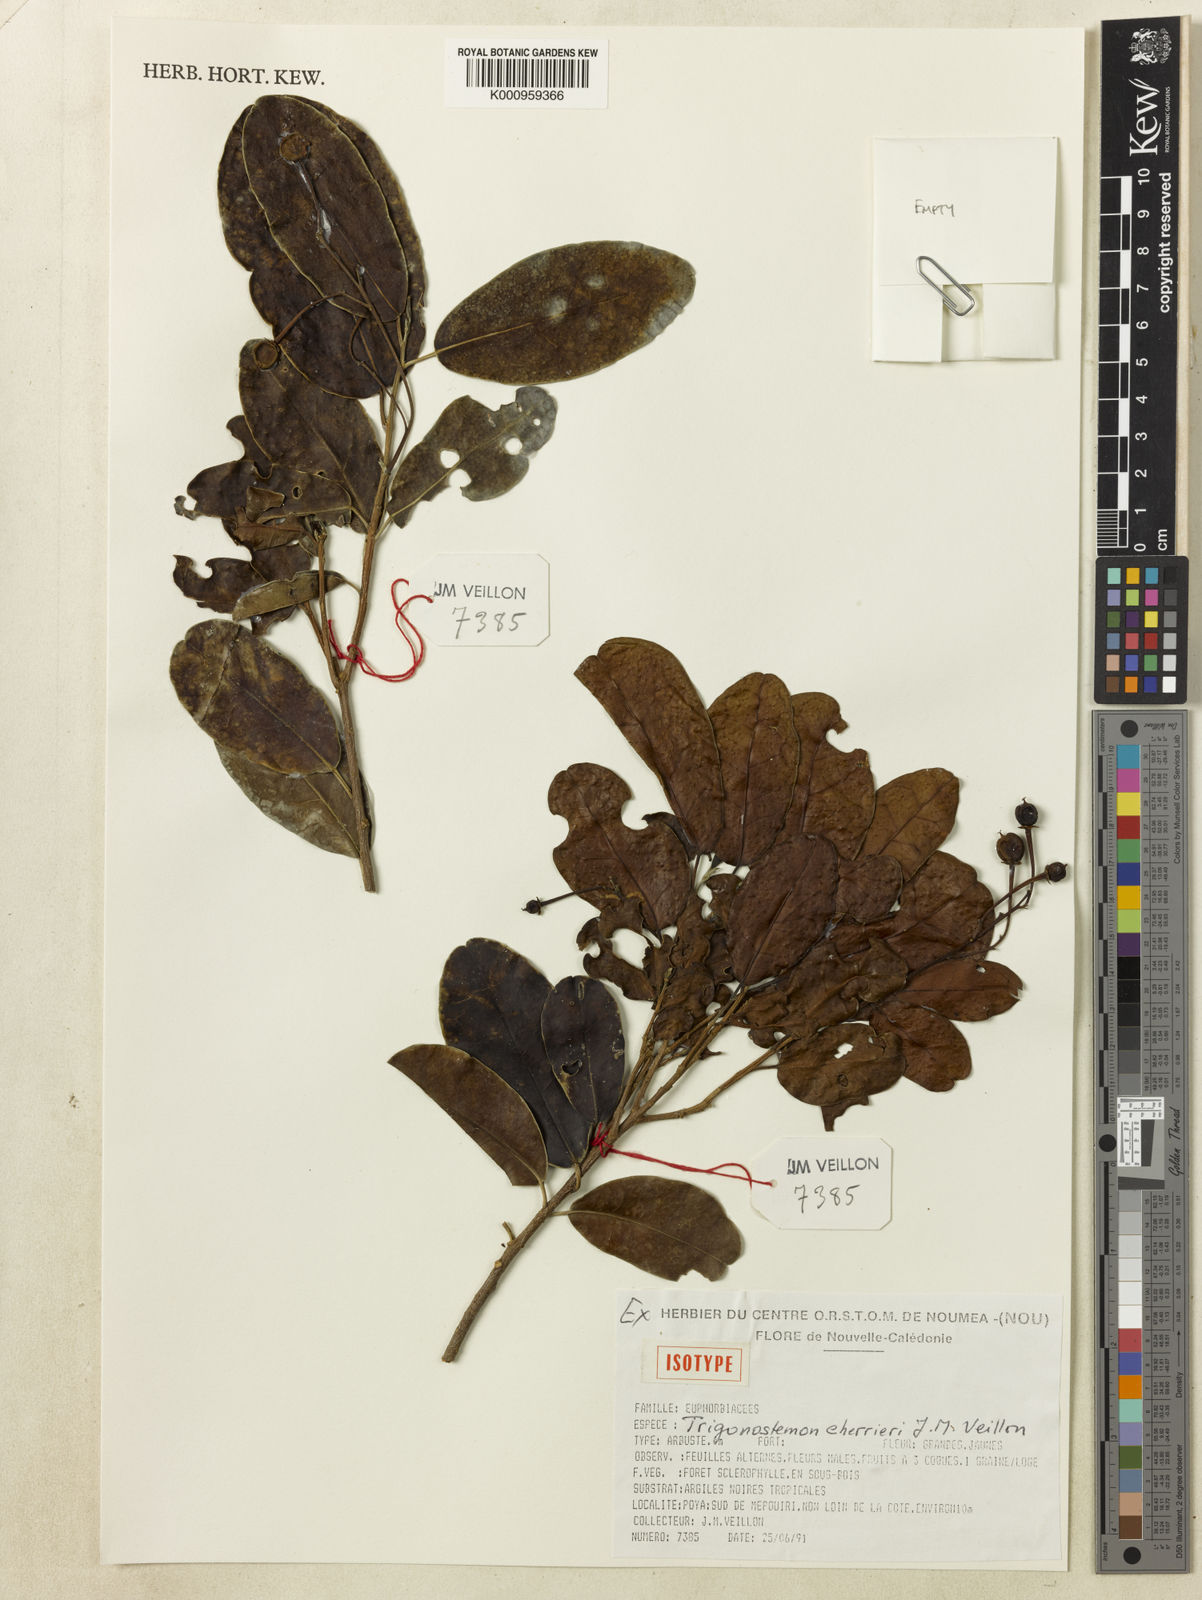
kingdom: Plantae
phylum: Tracheophyta
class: Magnoliopsida
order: Malpighiales
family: Euphorbiaceae
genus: Trigonostemon
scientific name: Trigonostemon cherrieri
